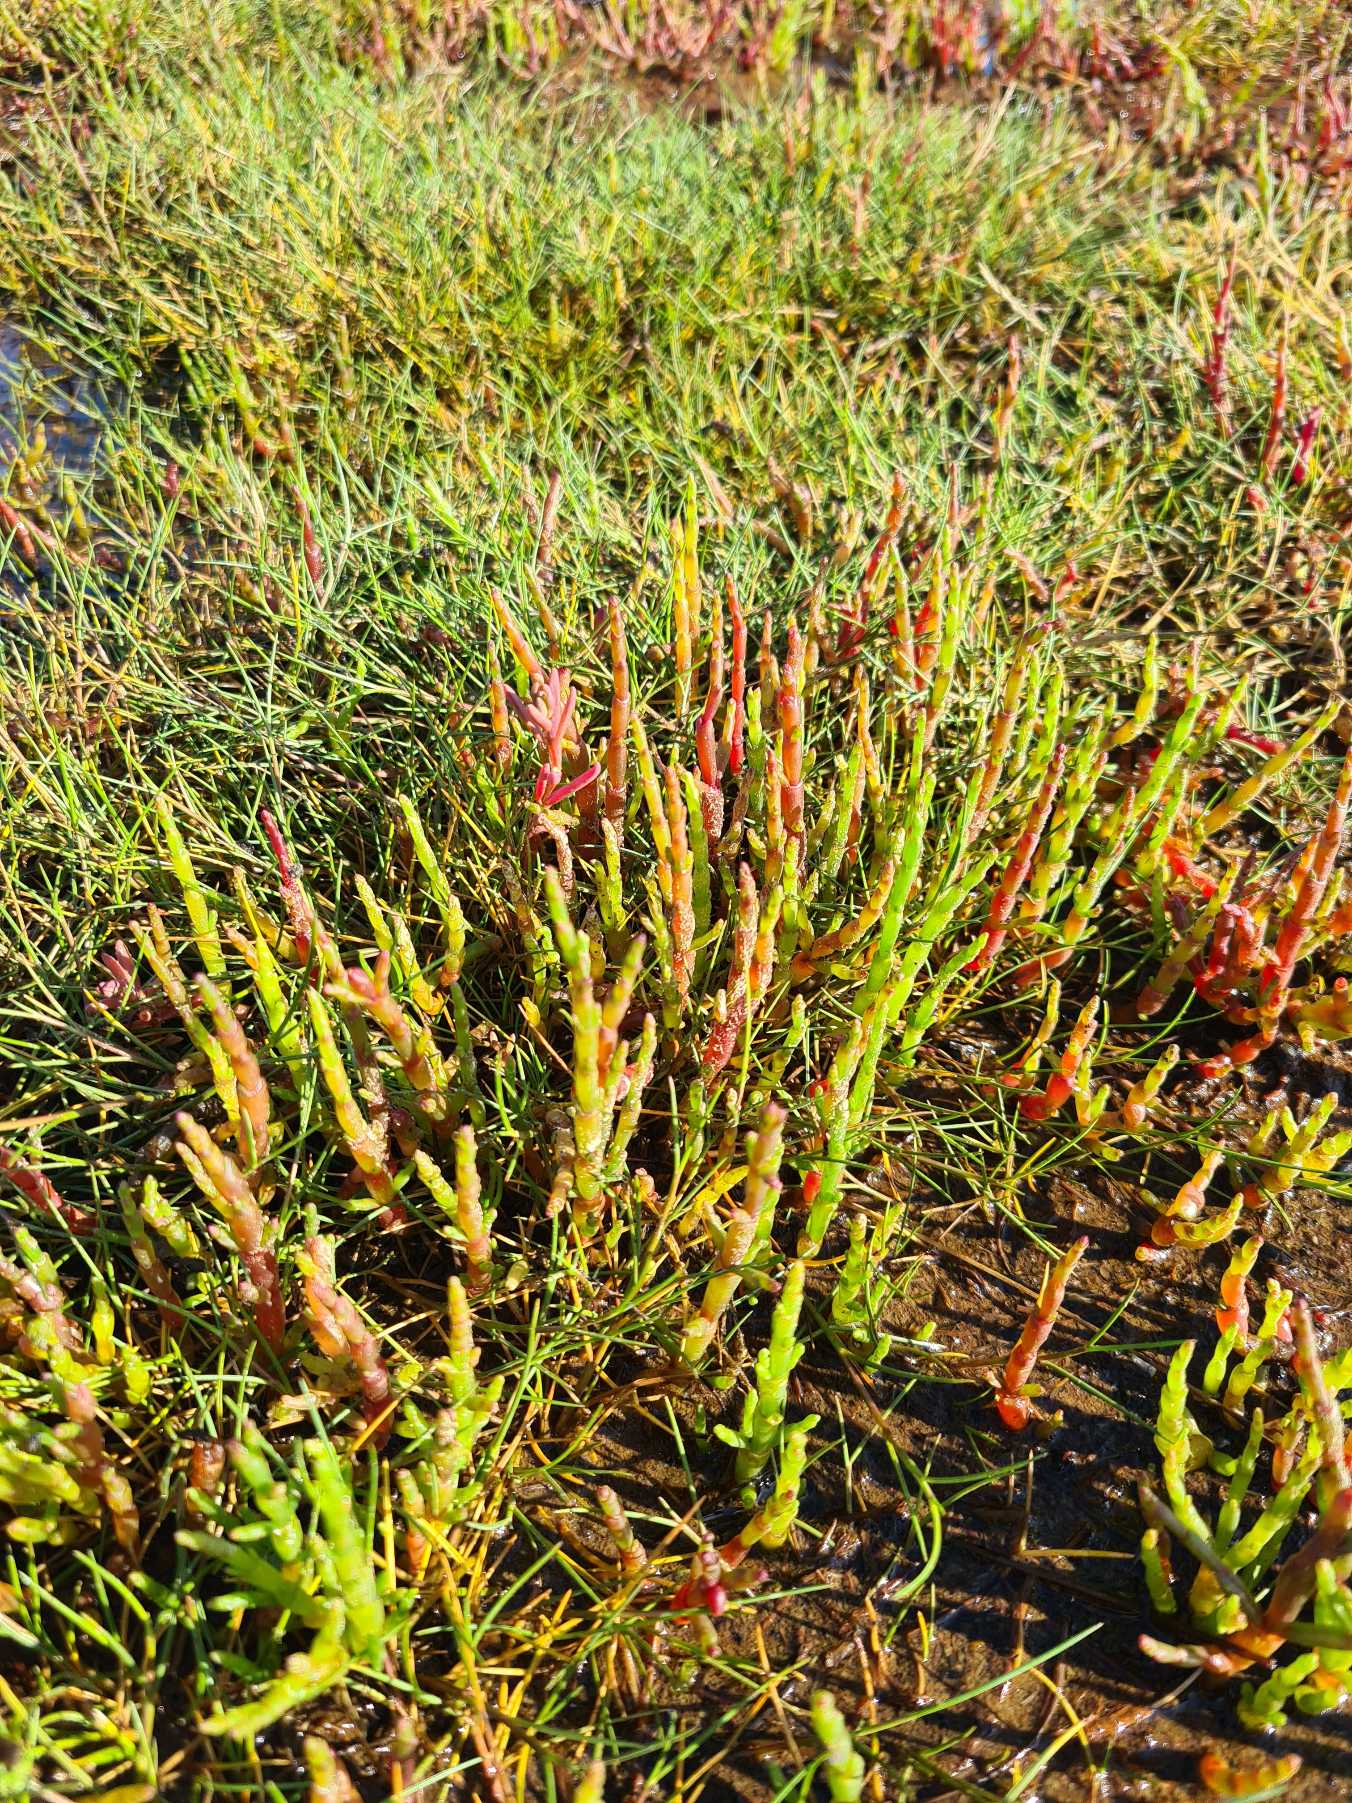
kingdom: Plantae
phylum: Tracheophyta
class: Magnoliopsida
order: Caryophyllales
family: Amaranthaceae
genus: Salicornia
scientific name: Salicornia europaea
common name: Almindelig salturt
